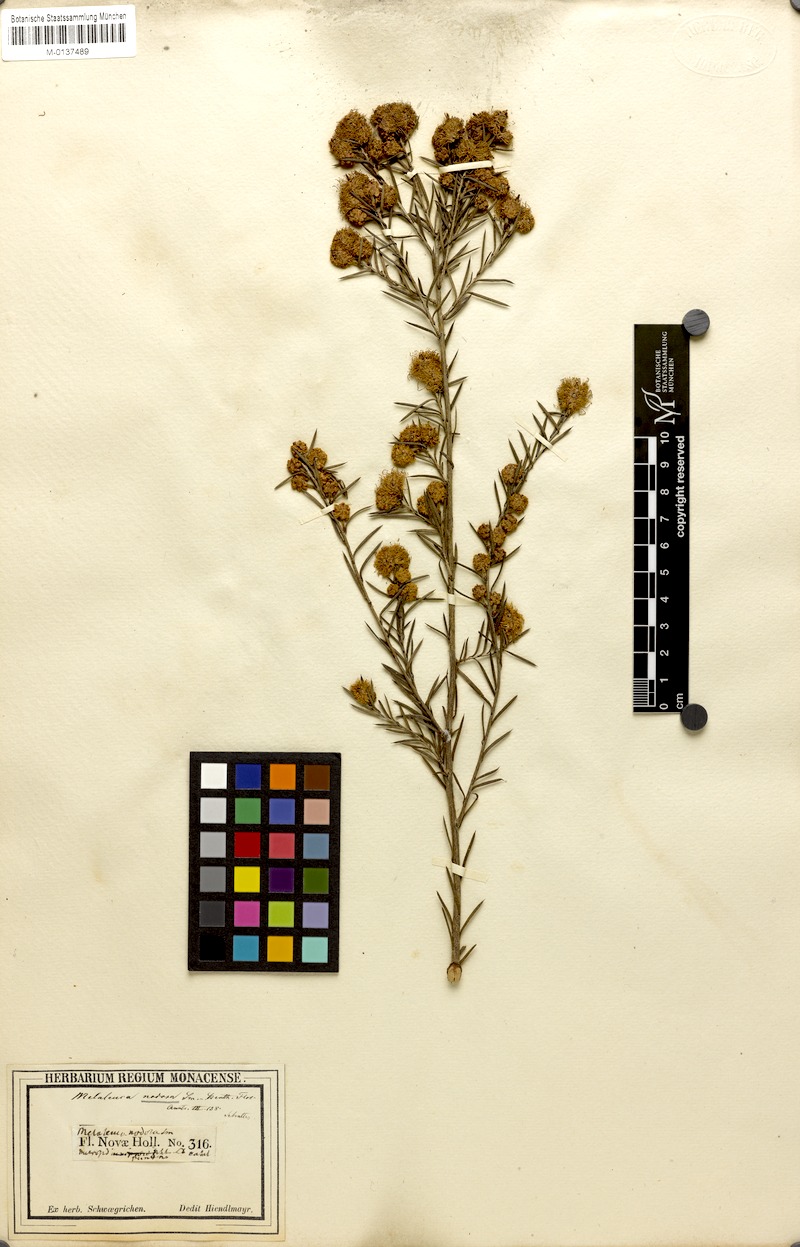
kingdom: Plantae
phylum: Tracheophyta
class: Magnoliopsida
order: Myrtales
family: Myrtaceae
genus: Melaleuca
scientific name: Melaleuca nodosa
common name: Prickly-leaf paperbark
